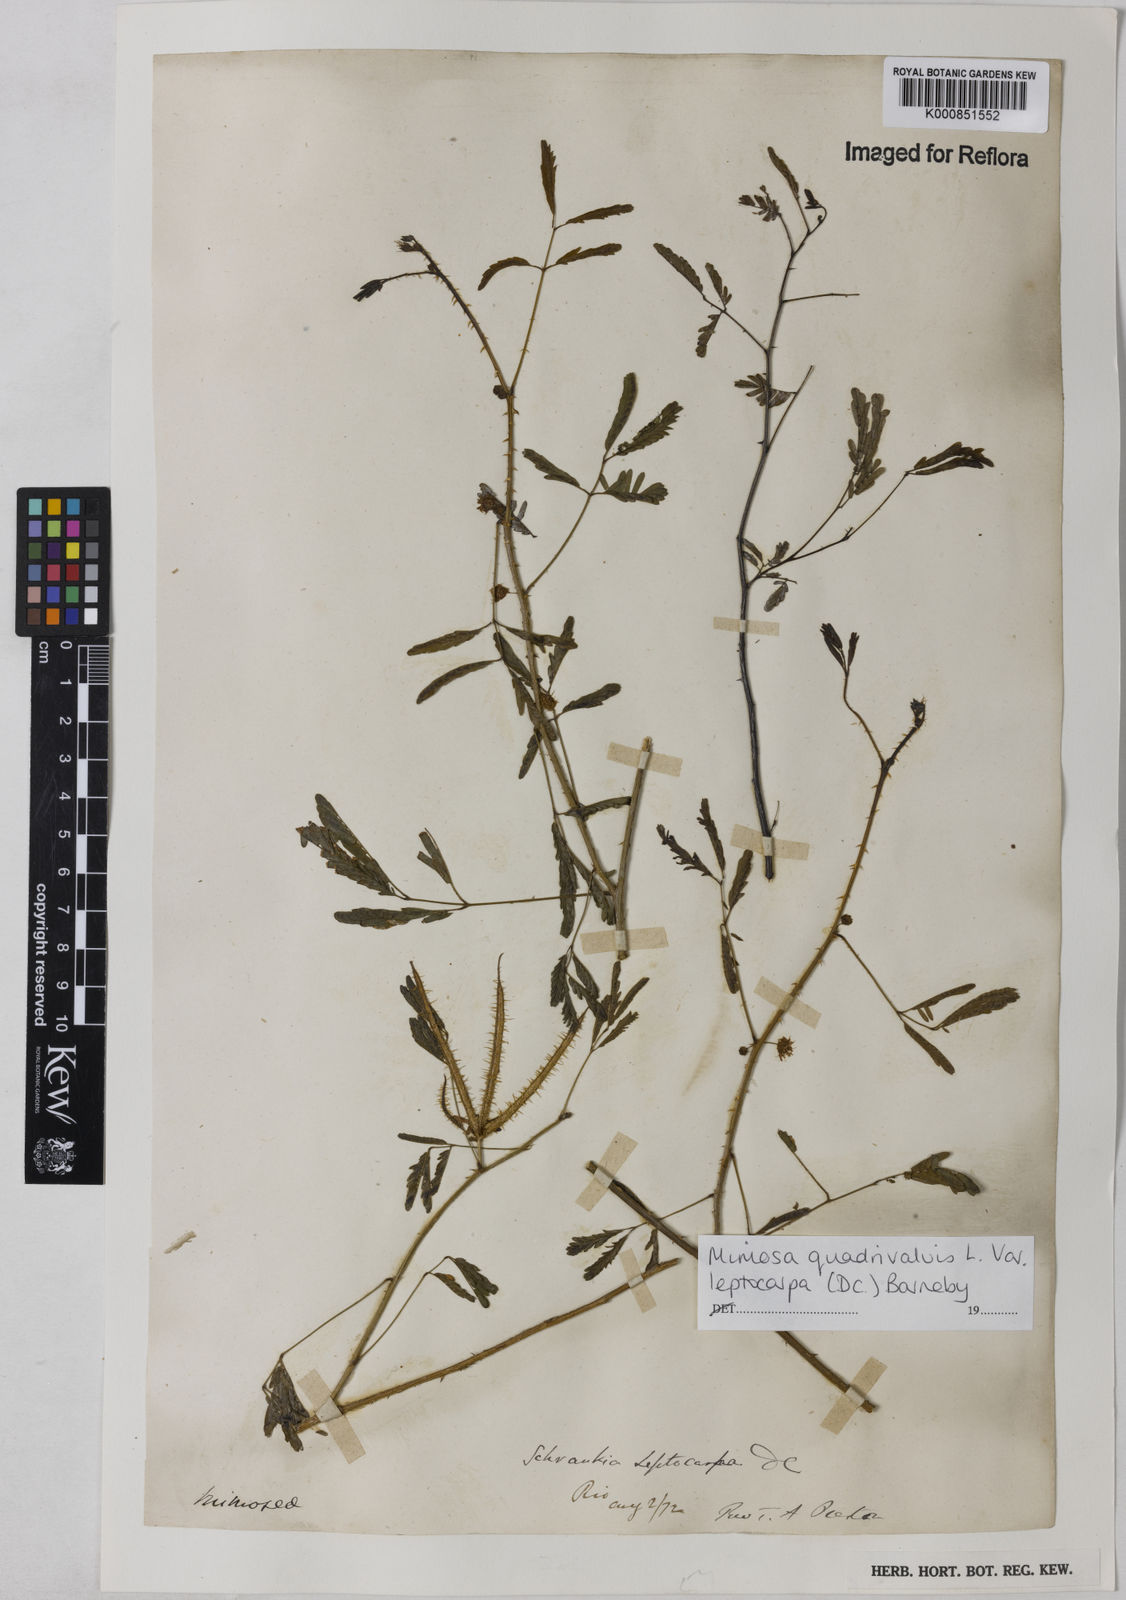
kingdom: Plantae
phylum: Tracheophyta
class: Magnoliopsida
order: Fabales
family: Fabaceae
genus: Mimosa
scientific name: Mimosa candollei
